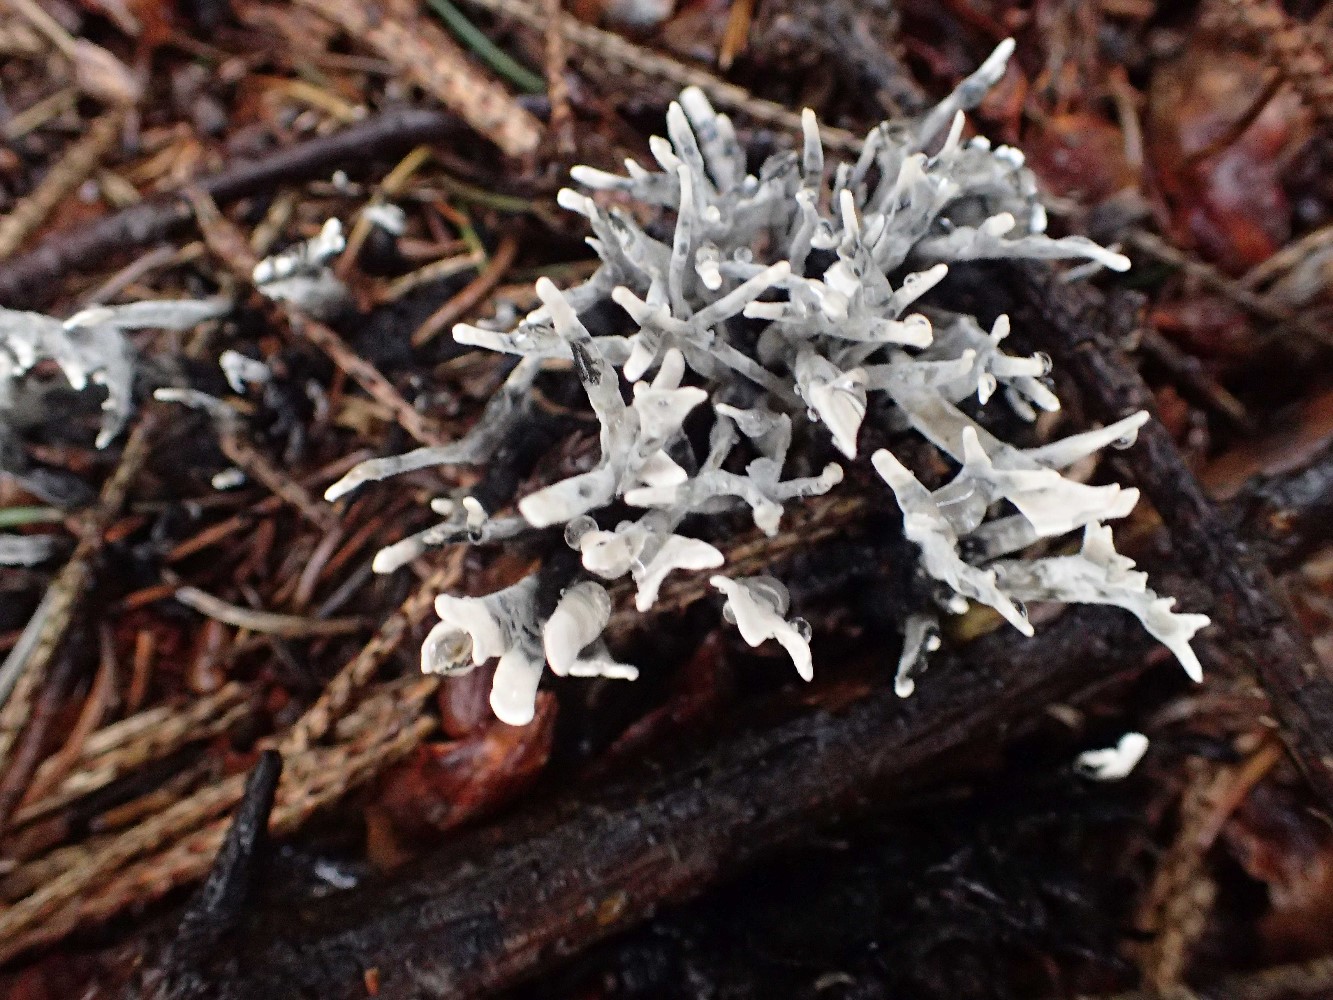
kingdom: Fungi
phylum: Ascomycota
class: Sordariomycetes
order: Xylariales
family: Xylariaceae
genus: Xylaria
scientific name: Xylaria hypoxylon
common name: grenet stødsvamp
